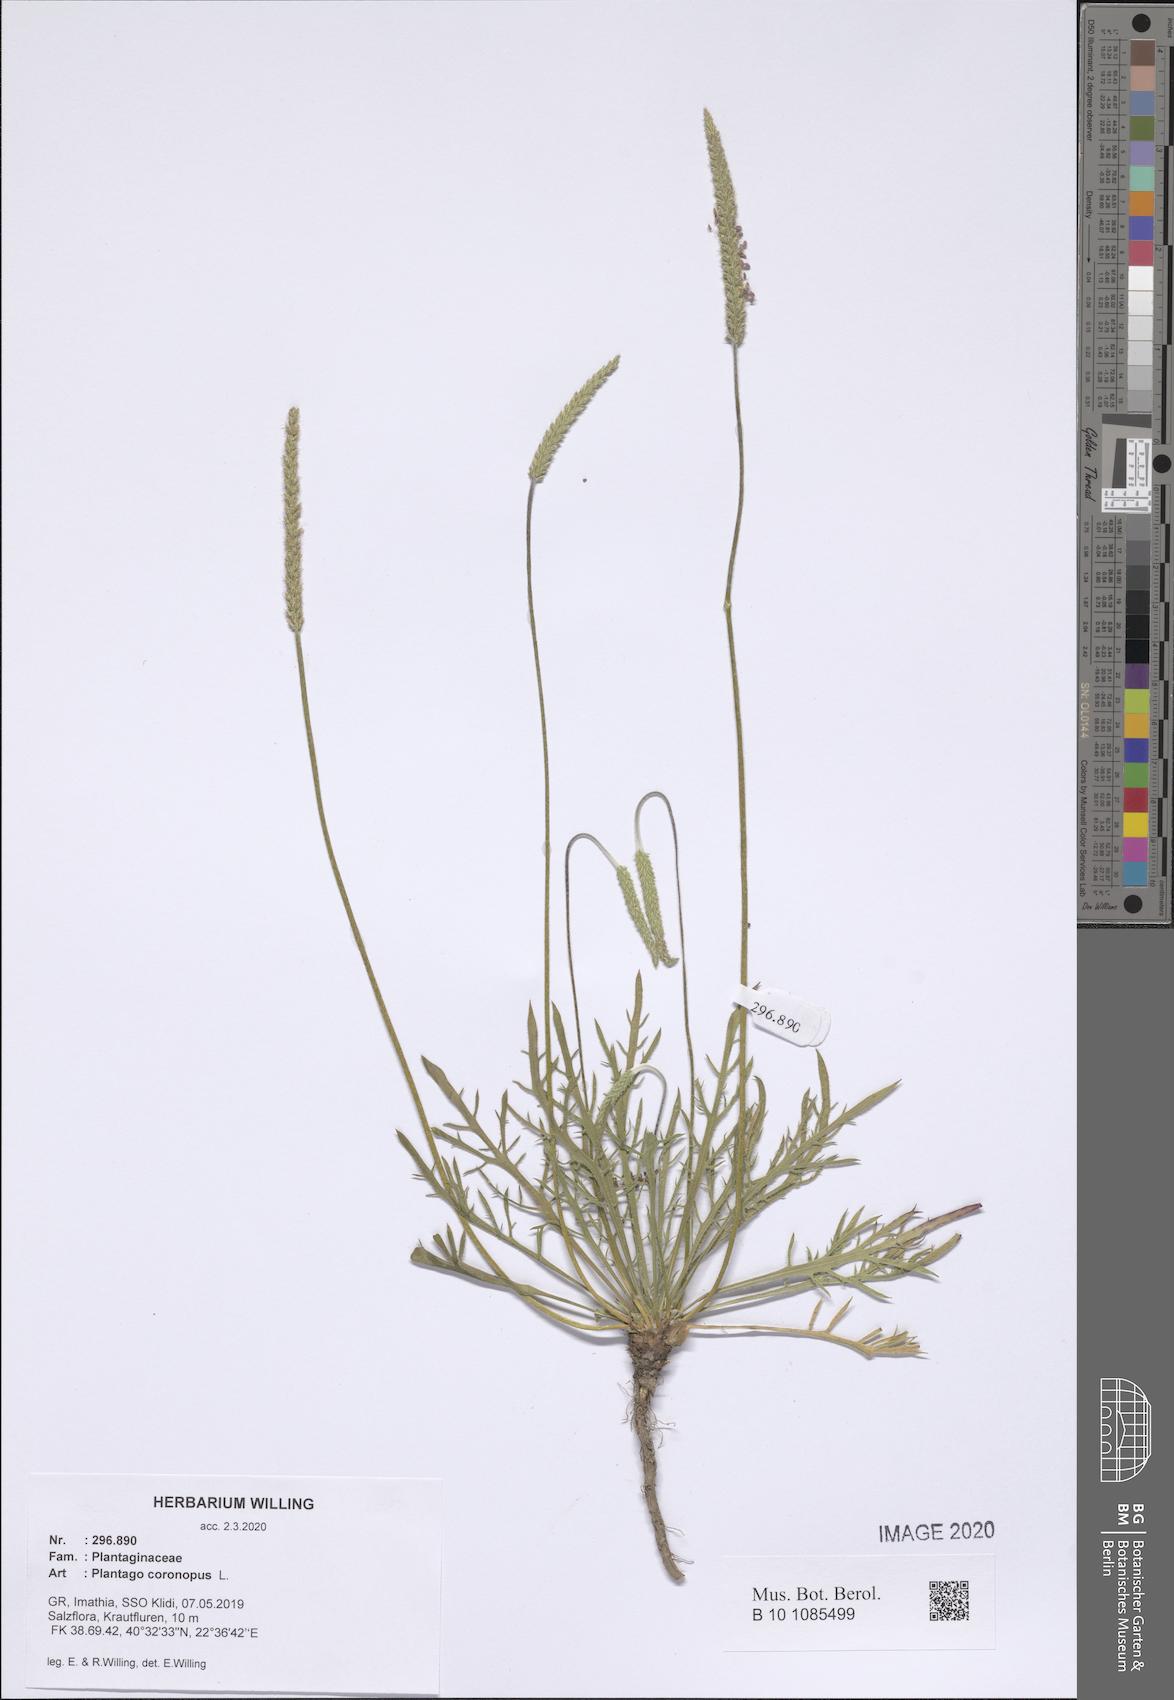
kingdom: Plantae
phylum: Tracheophyta
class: Magnoliopsida
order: Lamiales
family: Plantaginaceae
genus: Plantago
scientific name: Plantago coronopus
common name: Buck's-horn plantain
